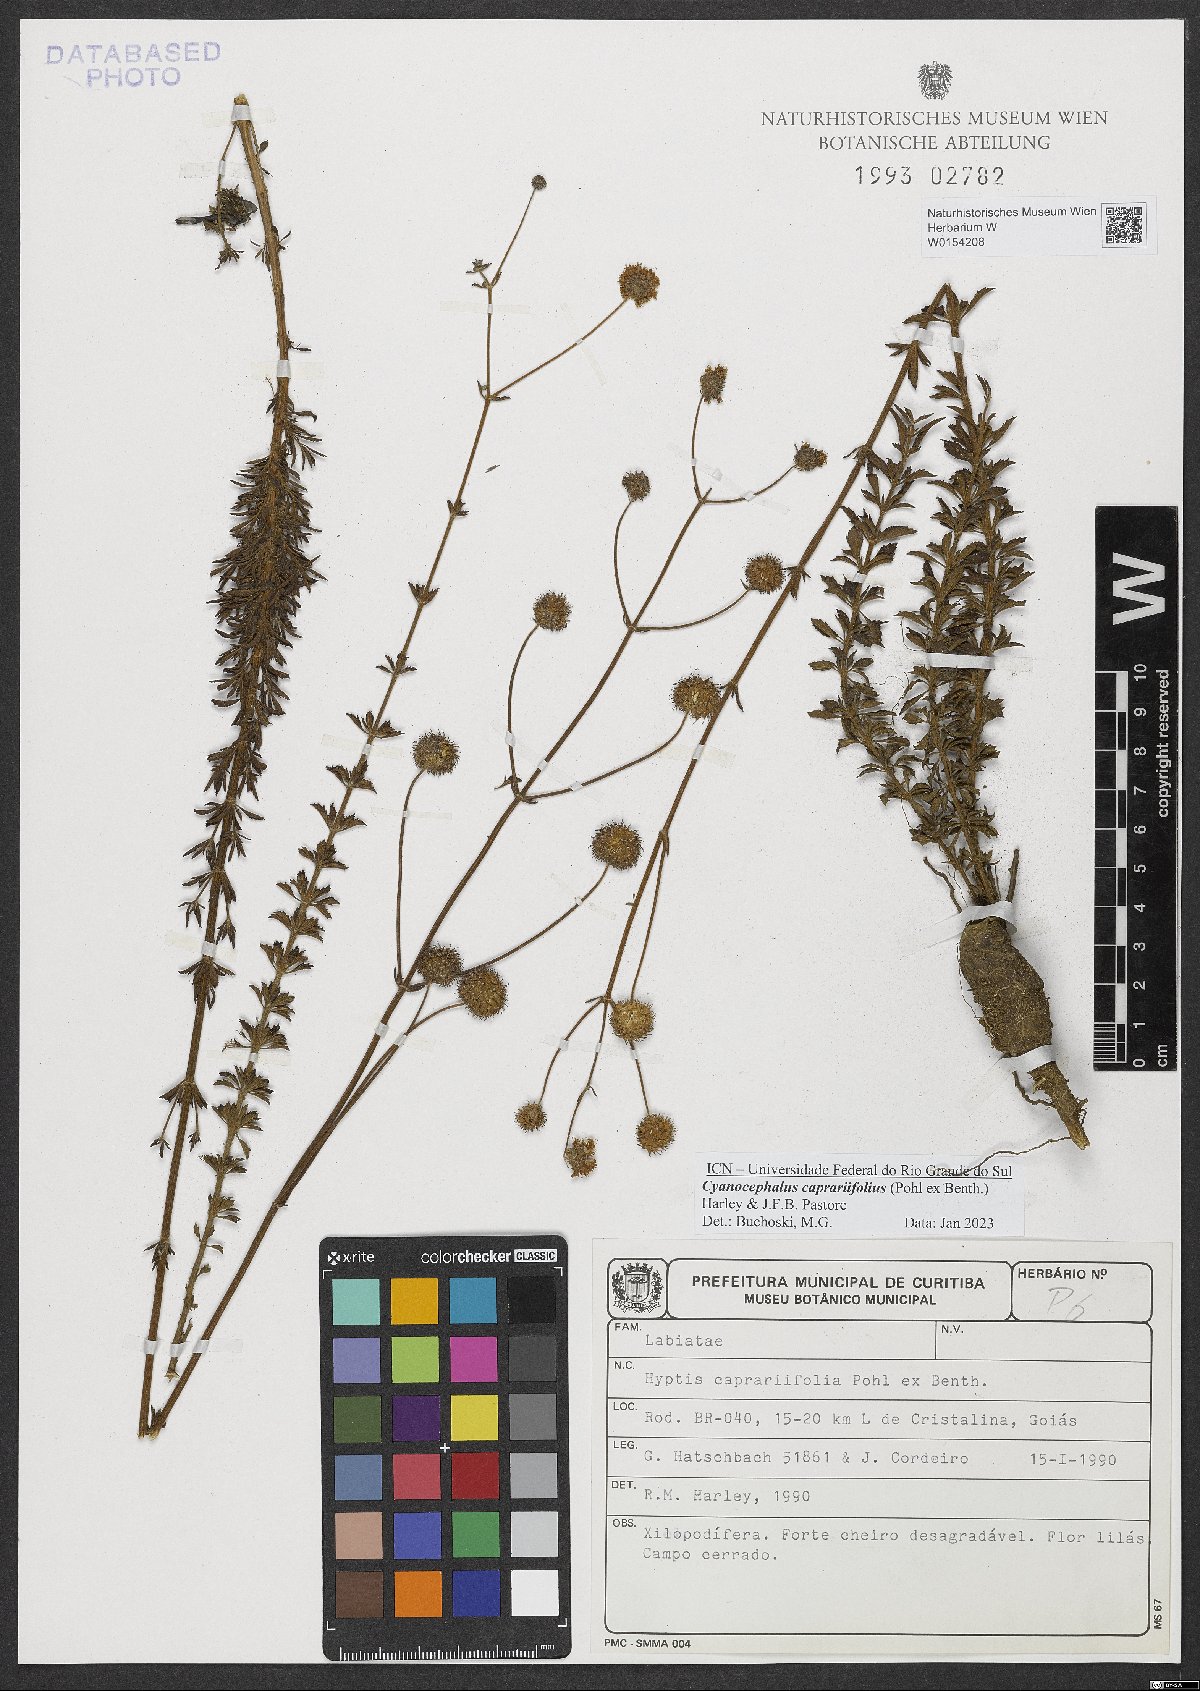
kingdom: Plantae
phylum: Tracheophyta
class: Magnoliopsida
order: Lamiales
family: Lamiaceae
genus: Cyanocephalus
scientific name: Cyanocephalus caprariifolius
